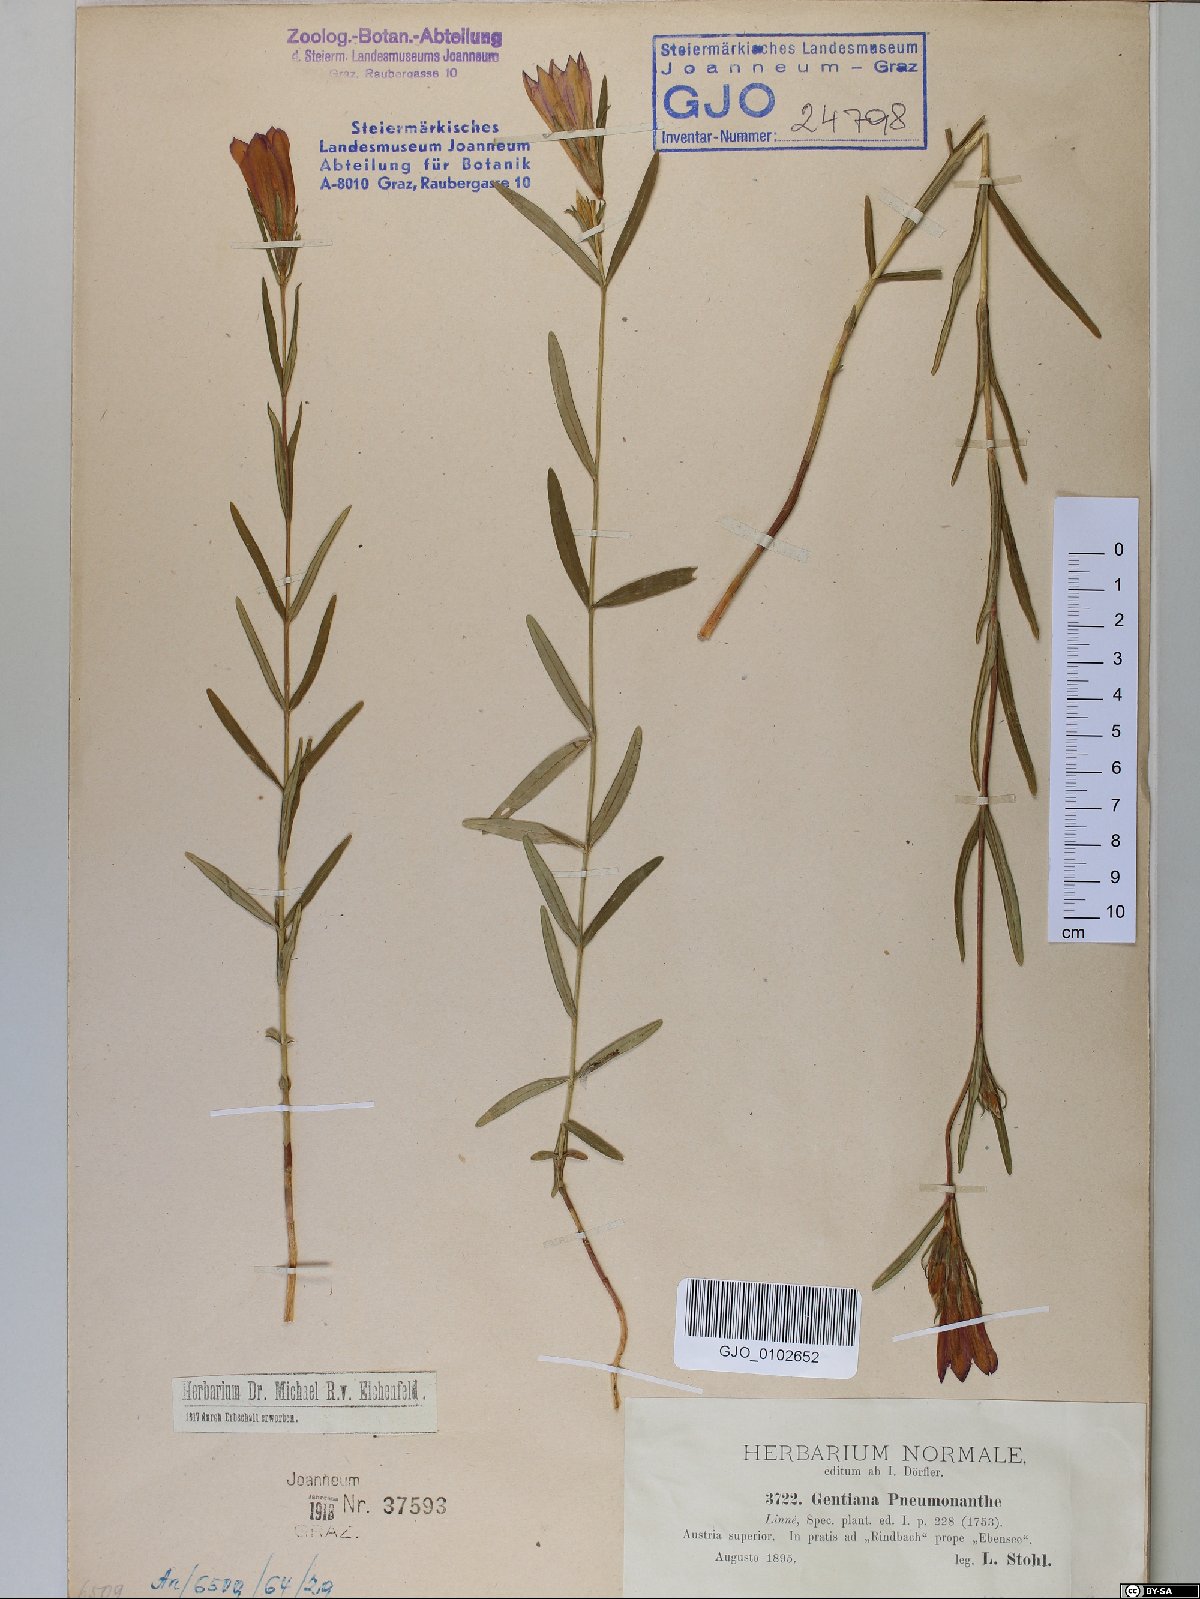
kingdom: Plantae
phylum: Tracheophyta
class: Magnoliopsida
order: Gentianales
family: Gentianaceae
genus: Gentiana
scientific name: Gentiana pneumonanthe
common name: Marsh gentian
